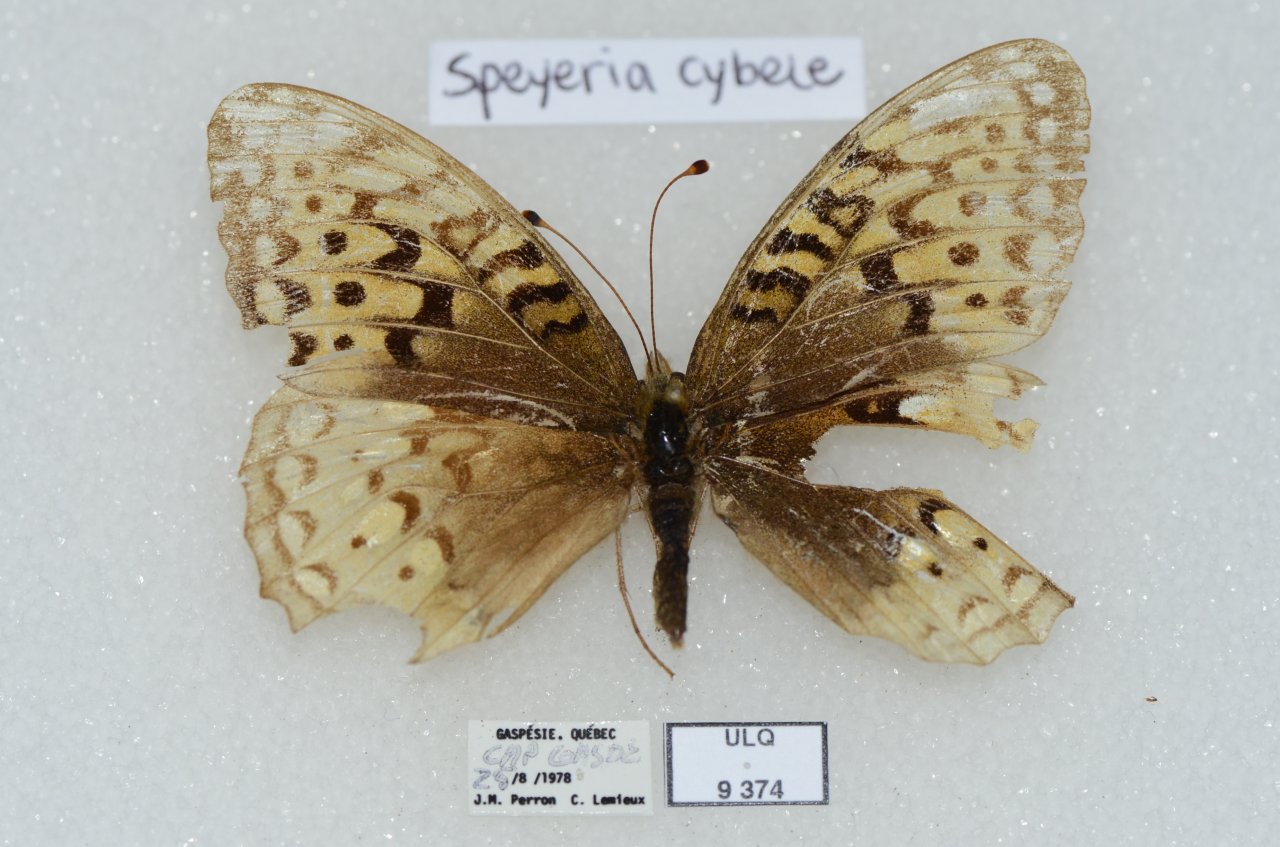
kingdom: Animalia
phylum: Arthropoda
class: Insecta
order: Lepidoptera
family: Nymphalidae
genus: Speyeria
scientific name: Speyeria cybele
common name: Great Spangled Fritillary
